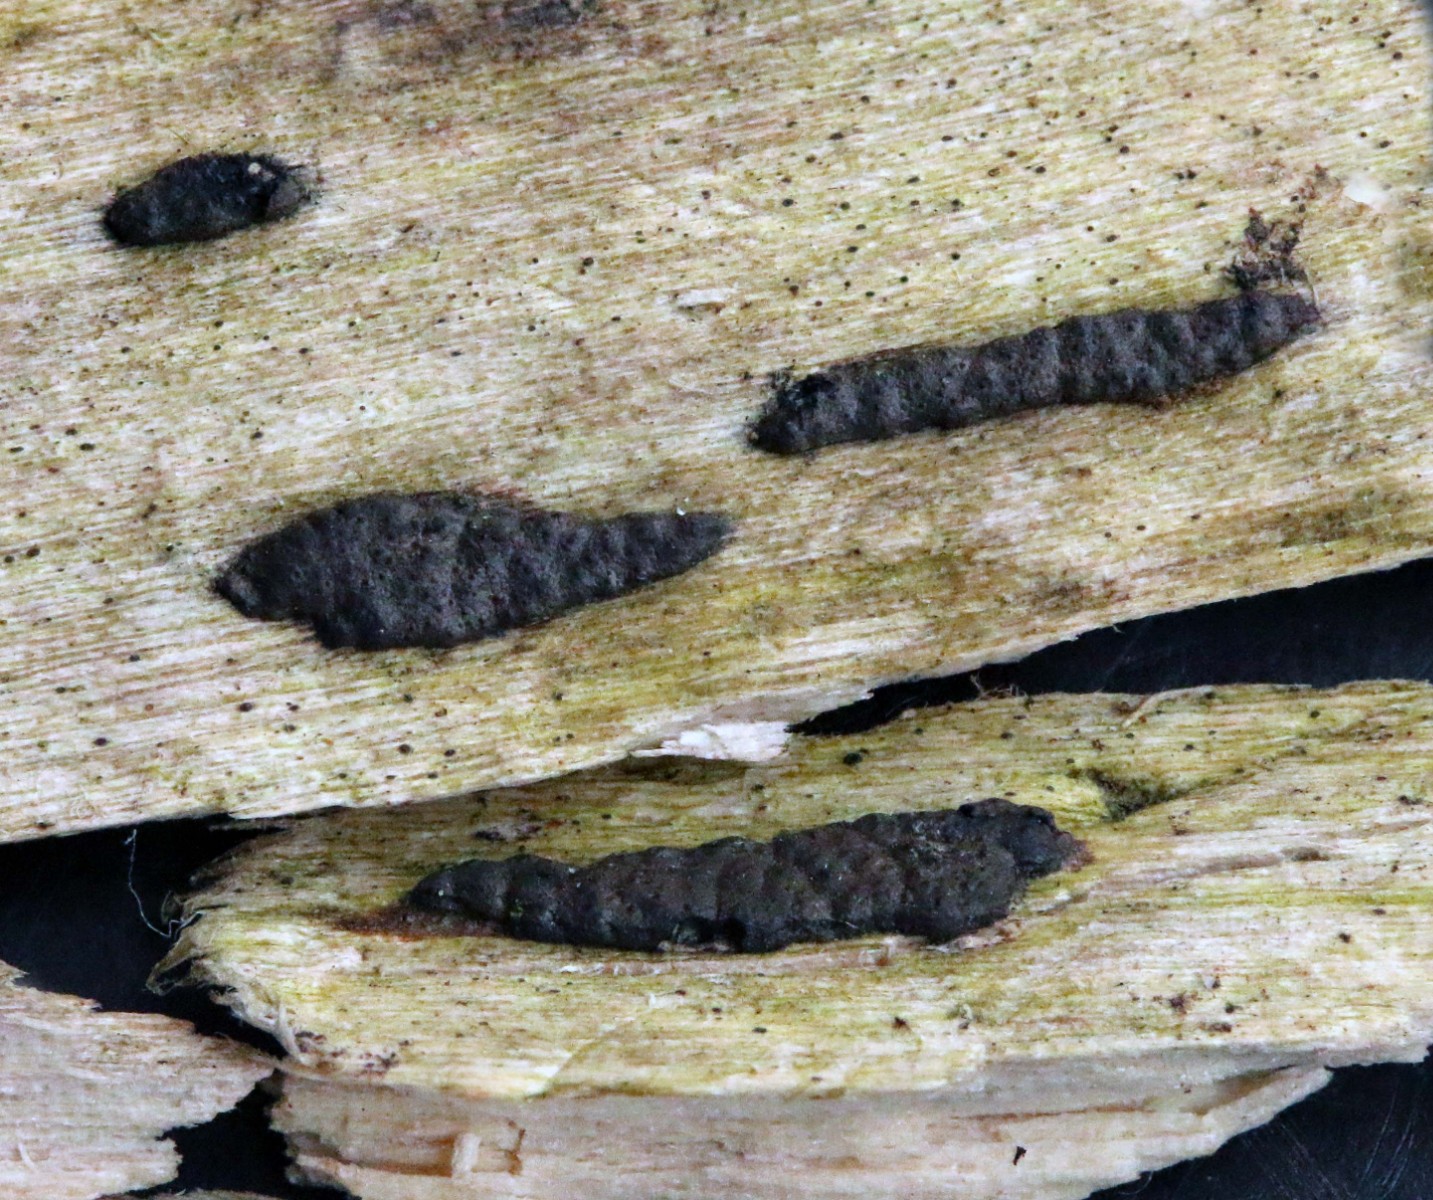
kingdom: Fungi
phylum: Ascomycota
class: Sordariomycetes
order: Xylariales
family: Xylariaceae
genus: Nemania
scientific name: Nemania serpens
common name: almindelig kuldyne
